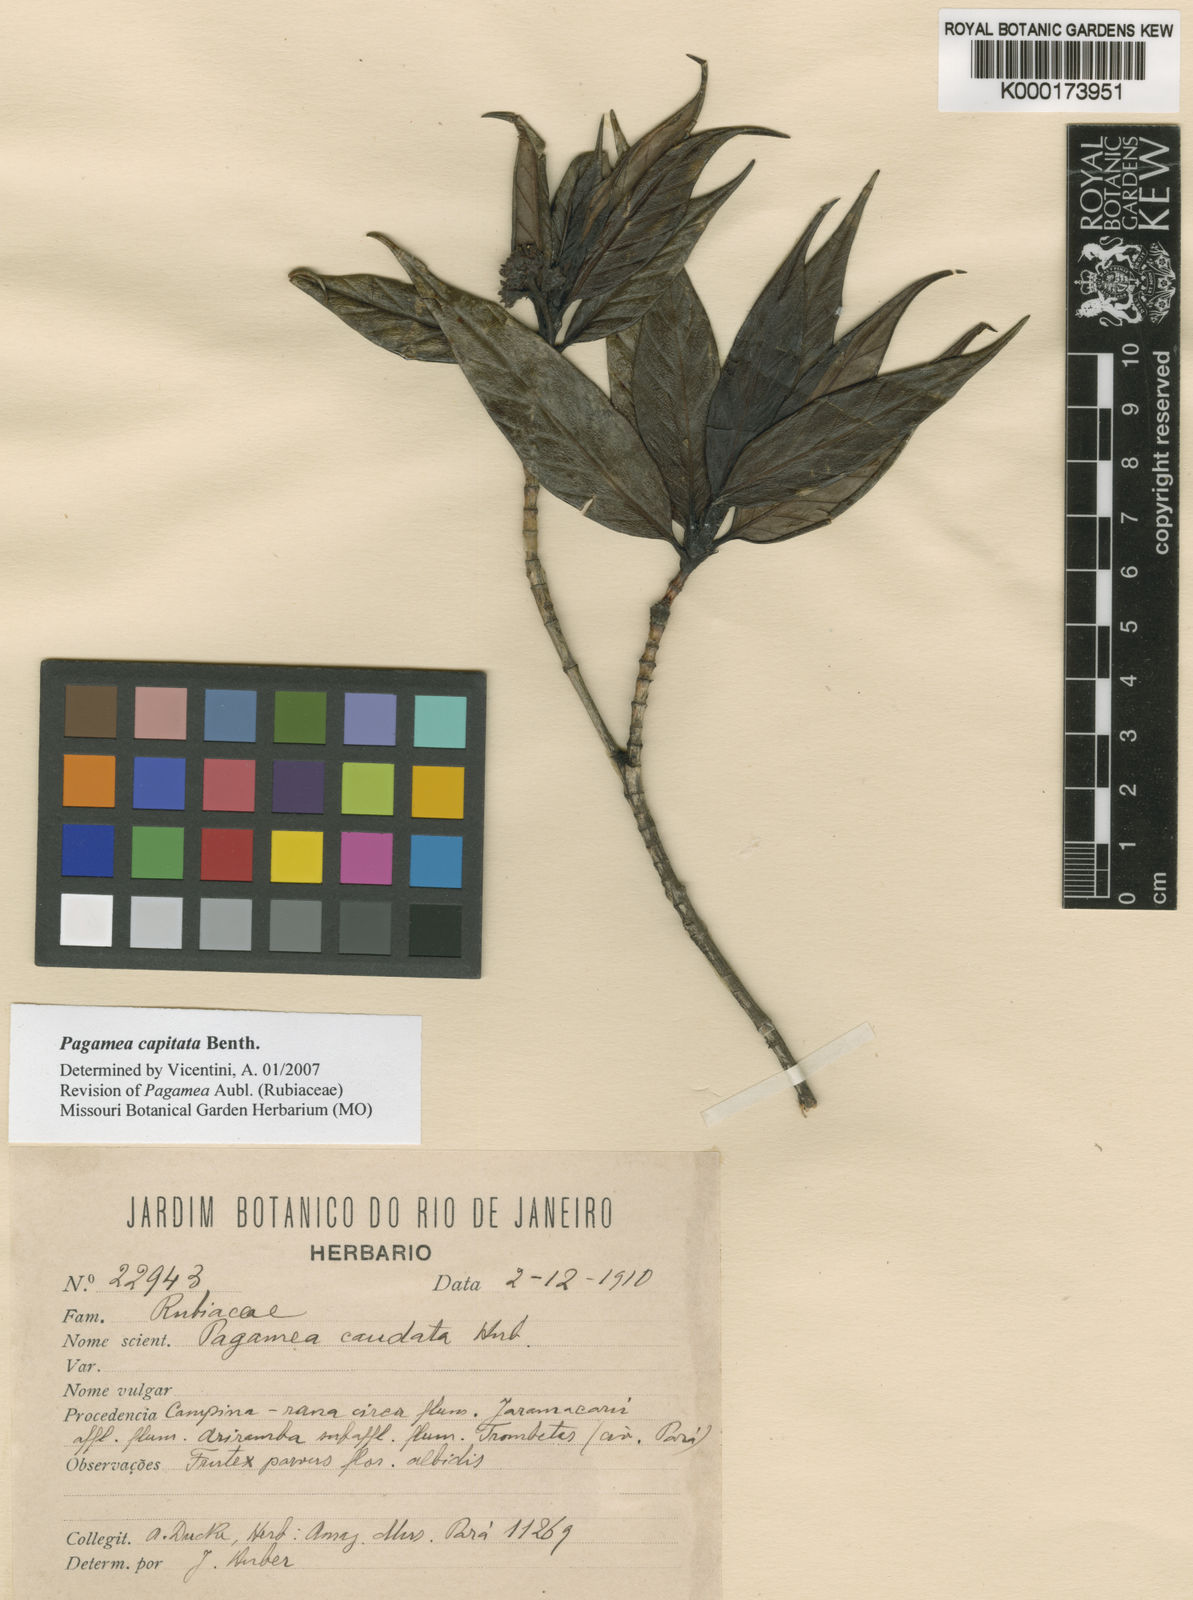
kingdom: Plantae
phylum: Tracheophyta
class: Magnoliopsida
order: Gentianales
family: Rubiaceae
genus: Pagamea
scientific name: Pagamea capitata
